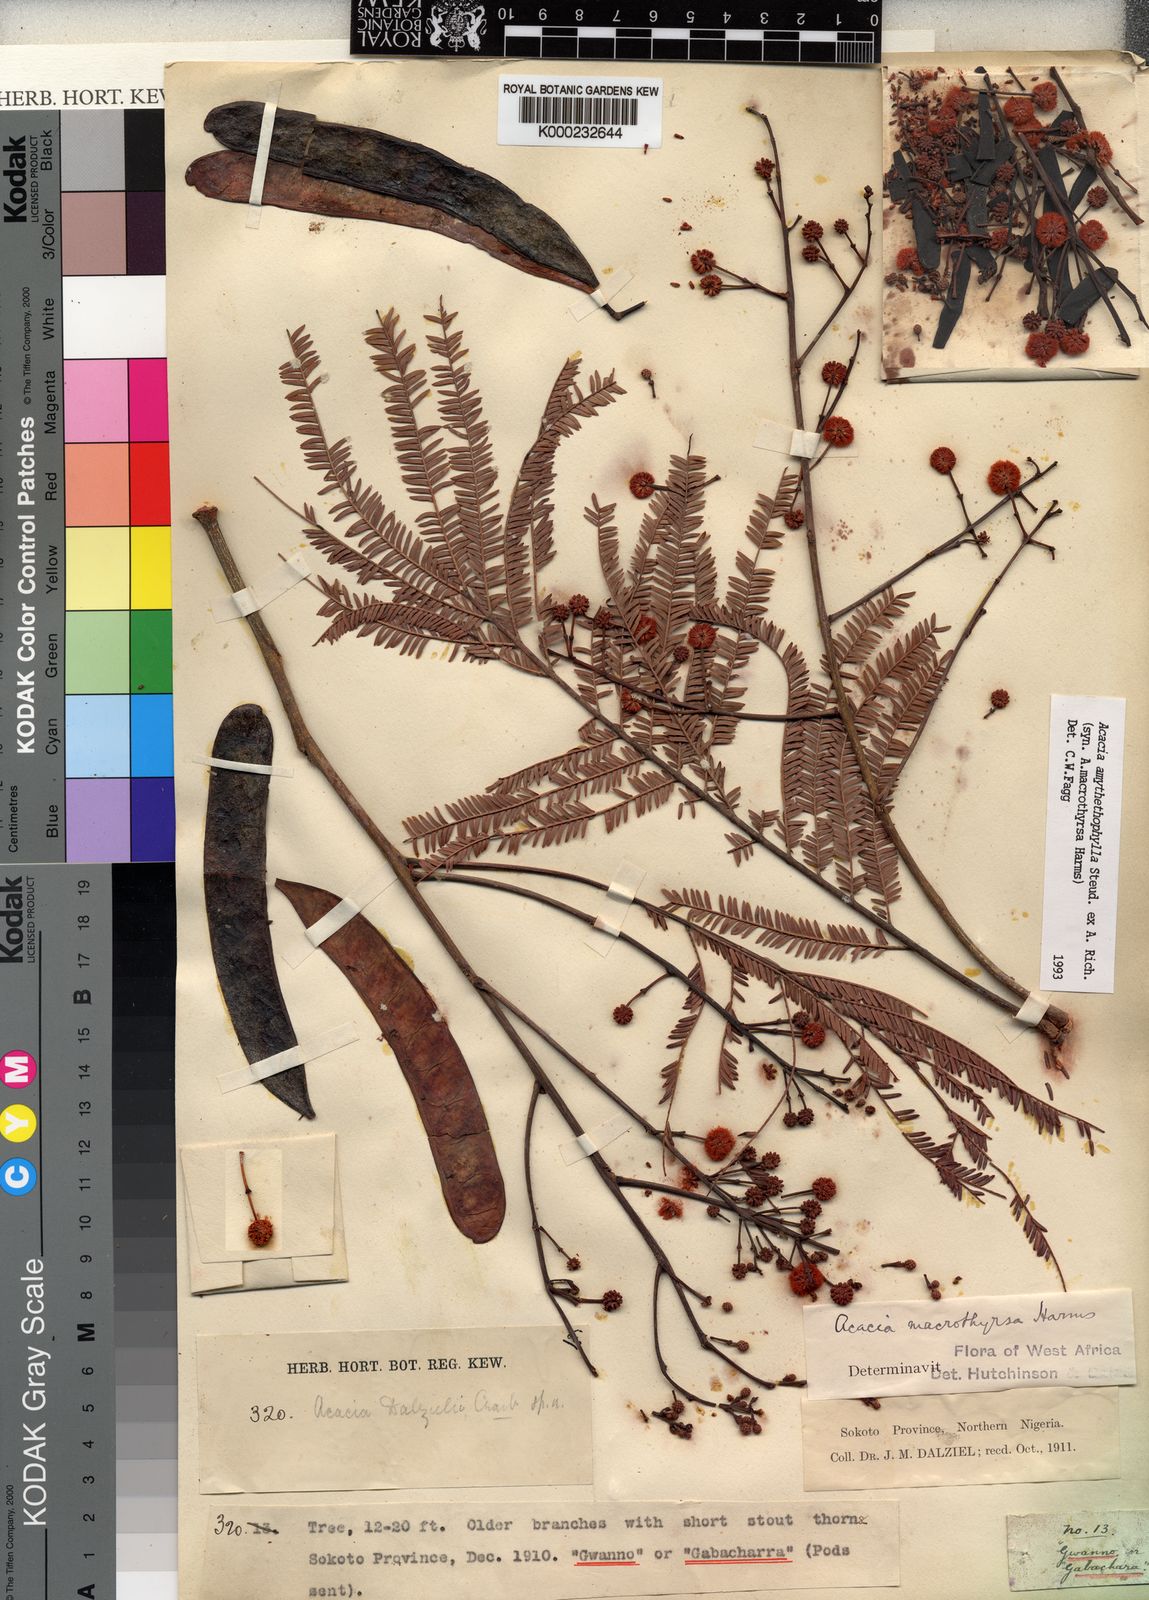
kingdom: Plantae
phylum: Tracheophyta
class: Magnoliopsida
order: Fabales
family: Fabaceae
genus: Vachellia
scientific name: Vachellia amythethophylla
